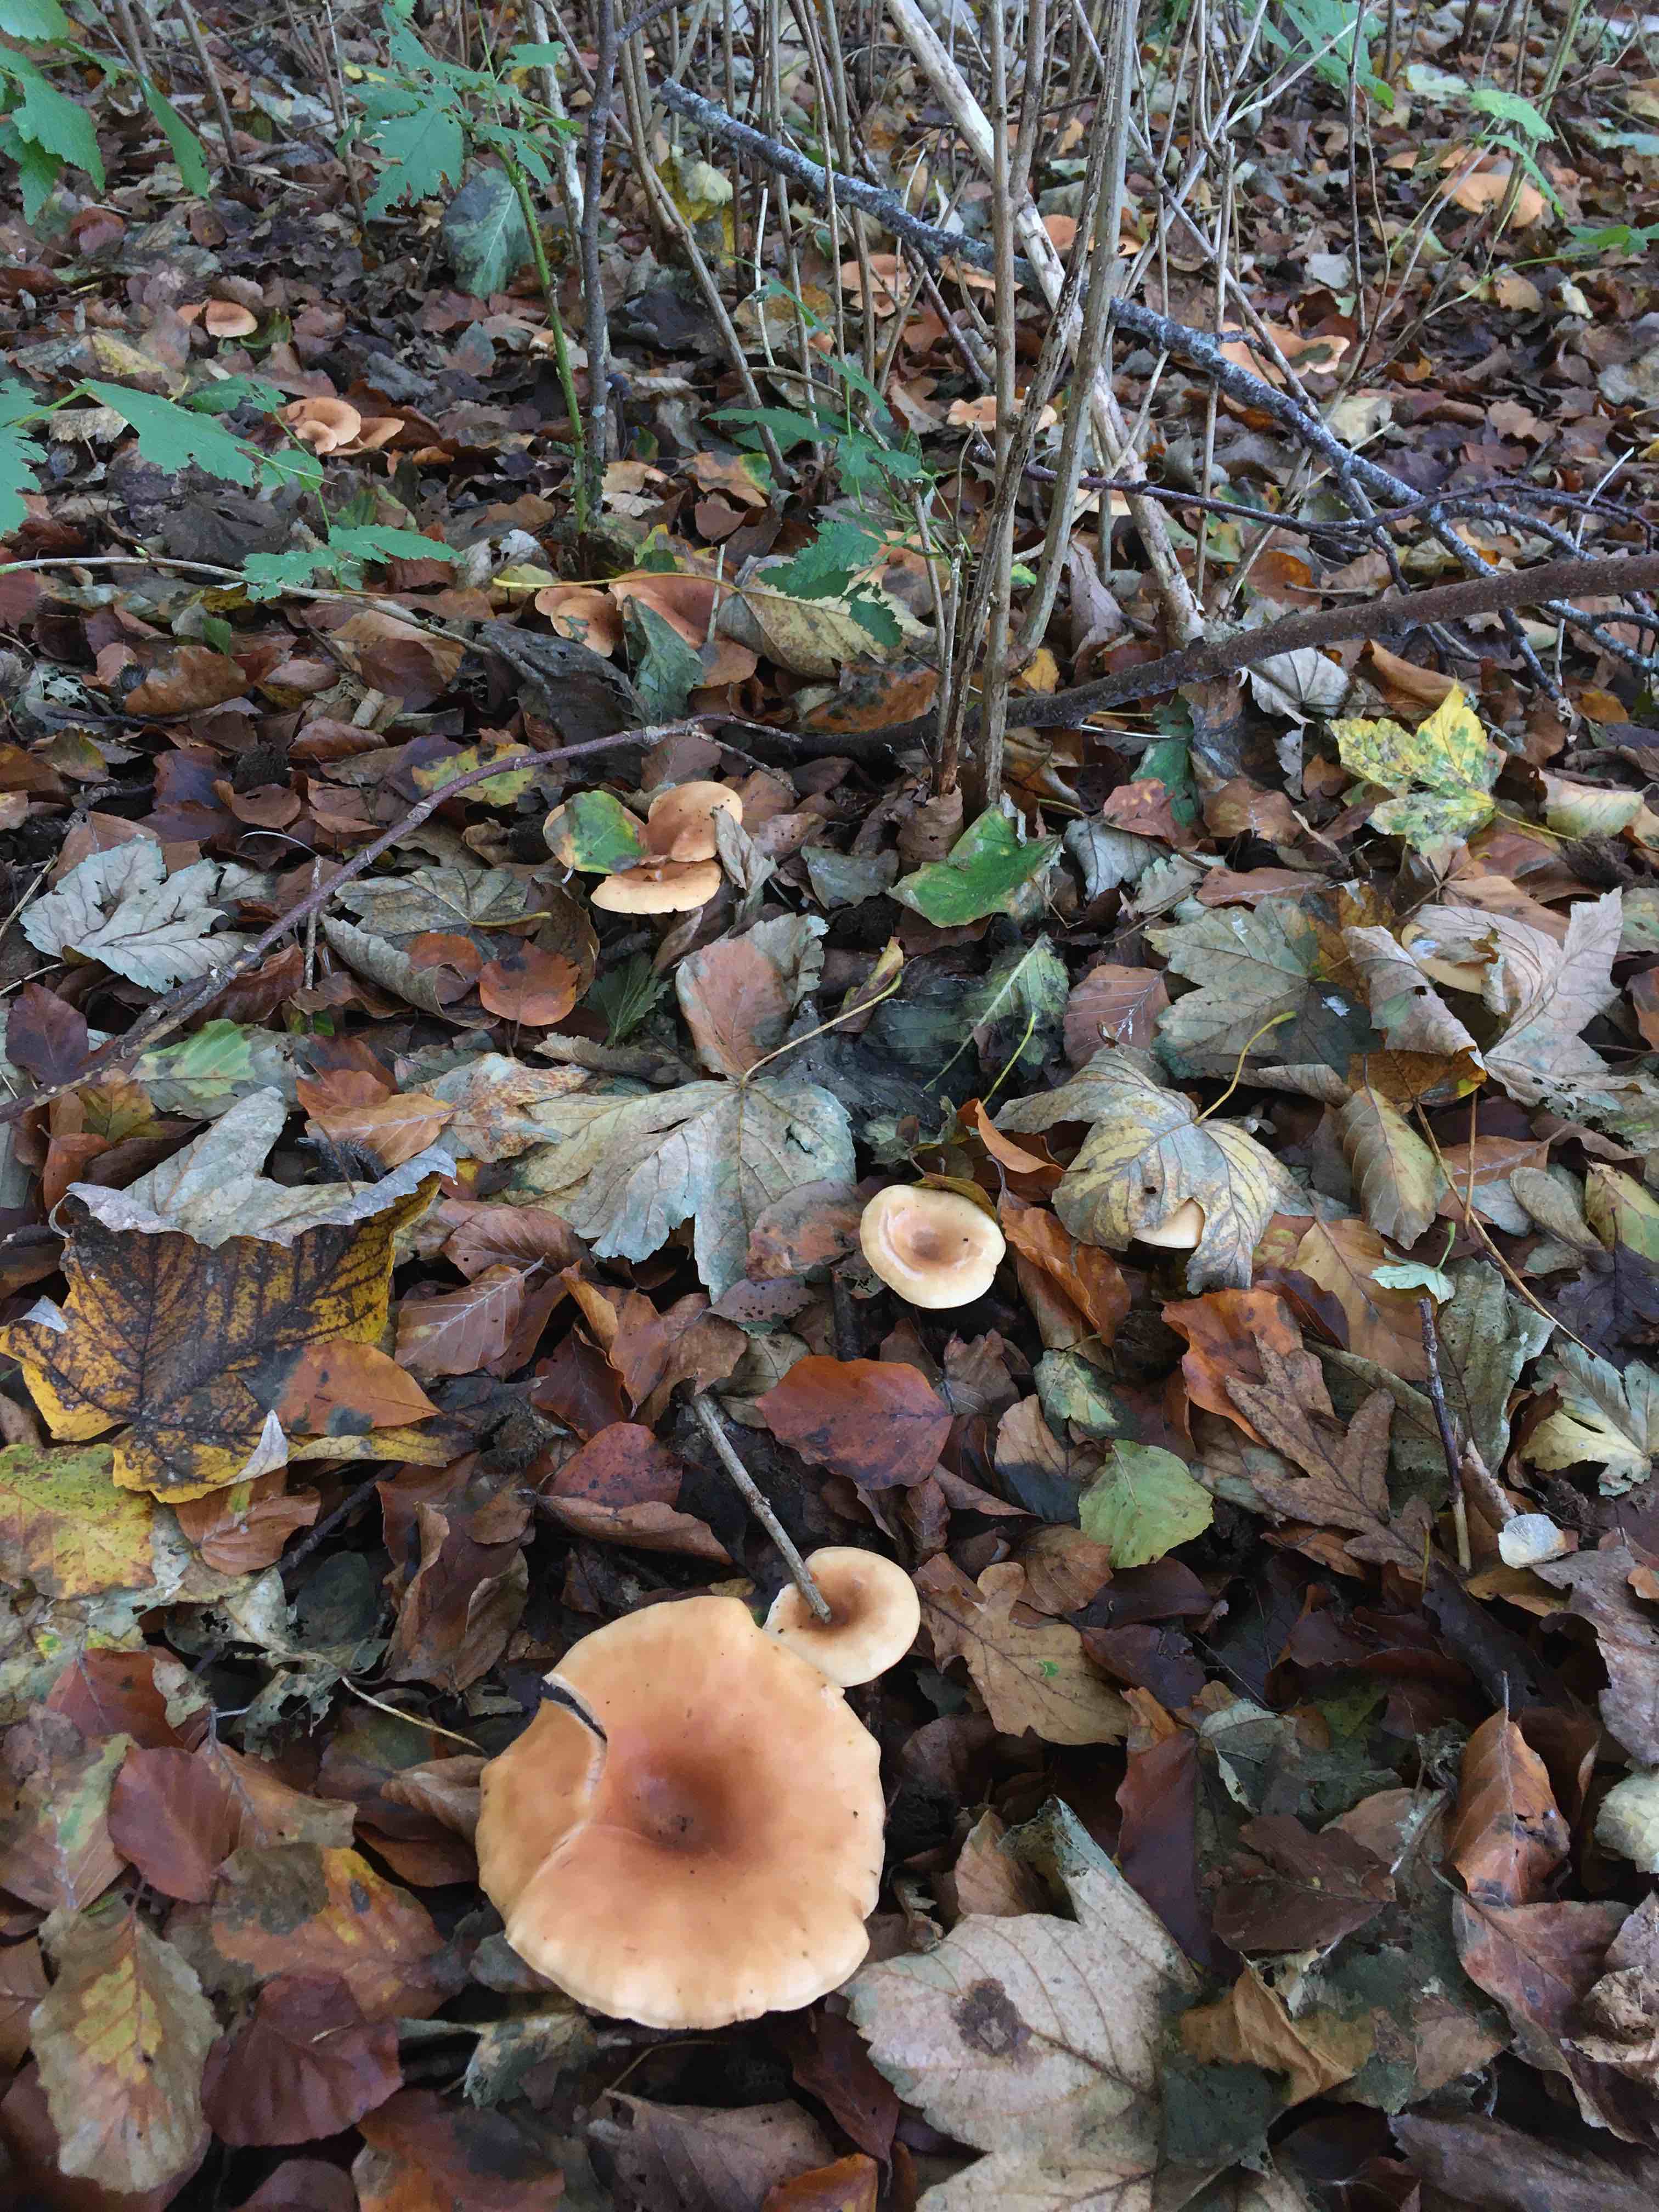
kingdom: Fungi
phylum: Basidiomycota
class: Agaricomycetes
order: Agaricales
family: Tricholomataceae
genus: Paralepista
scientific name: Paralepista flaccida
